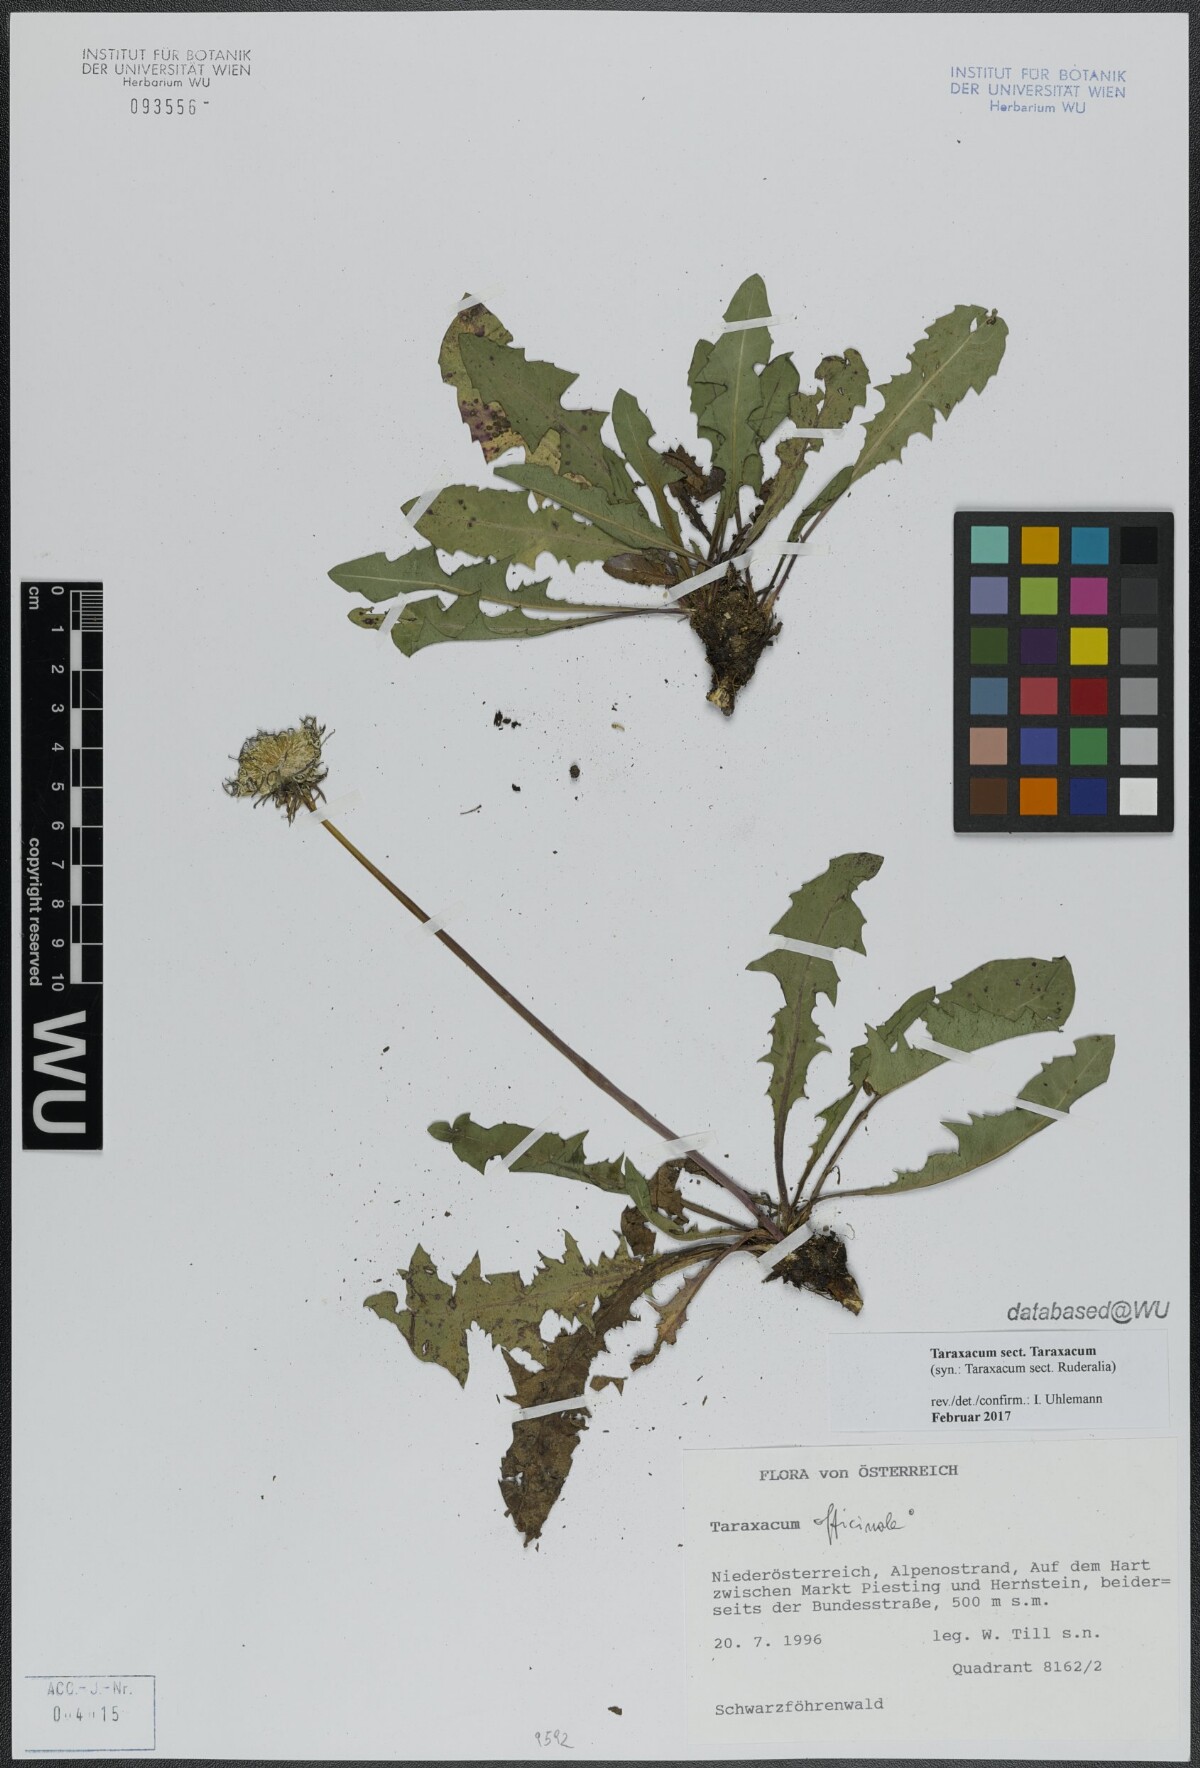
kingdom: Plantae
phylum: Tracheophyta
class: Magnoliopsida
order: Asterales
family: Asteraceae
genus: Taraxacum
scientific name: Taraxacum
